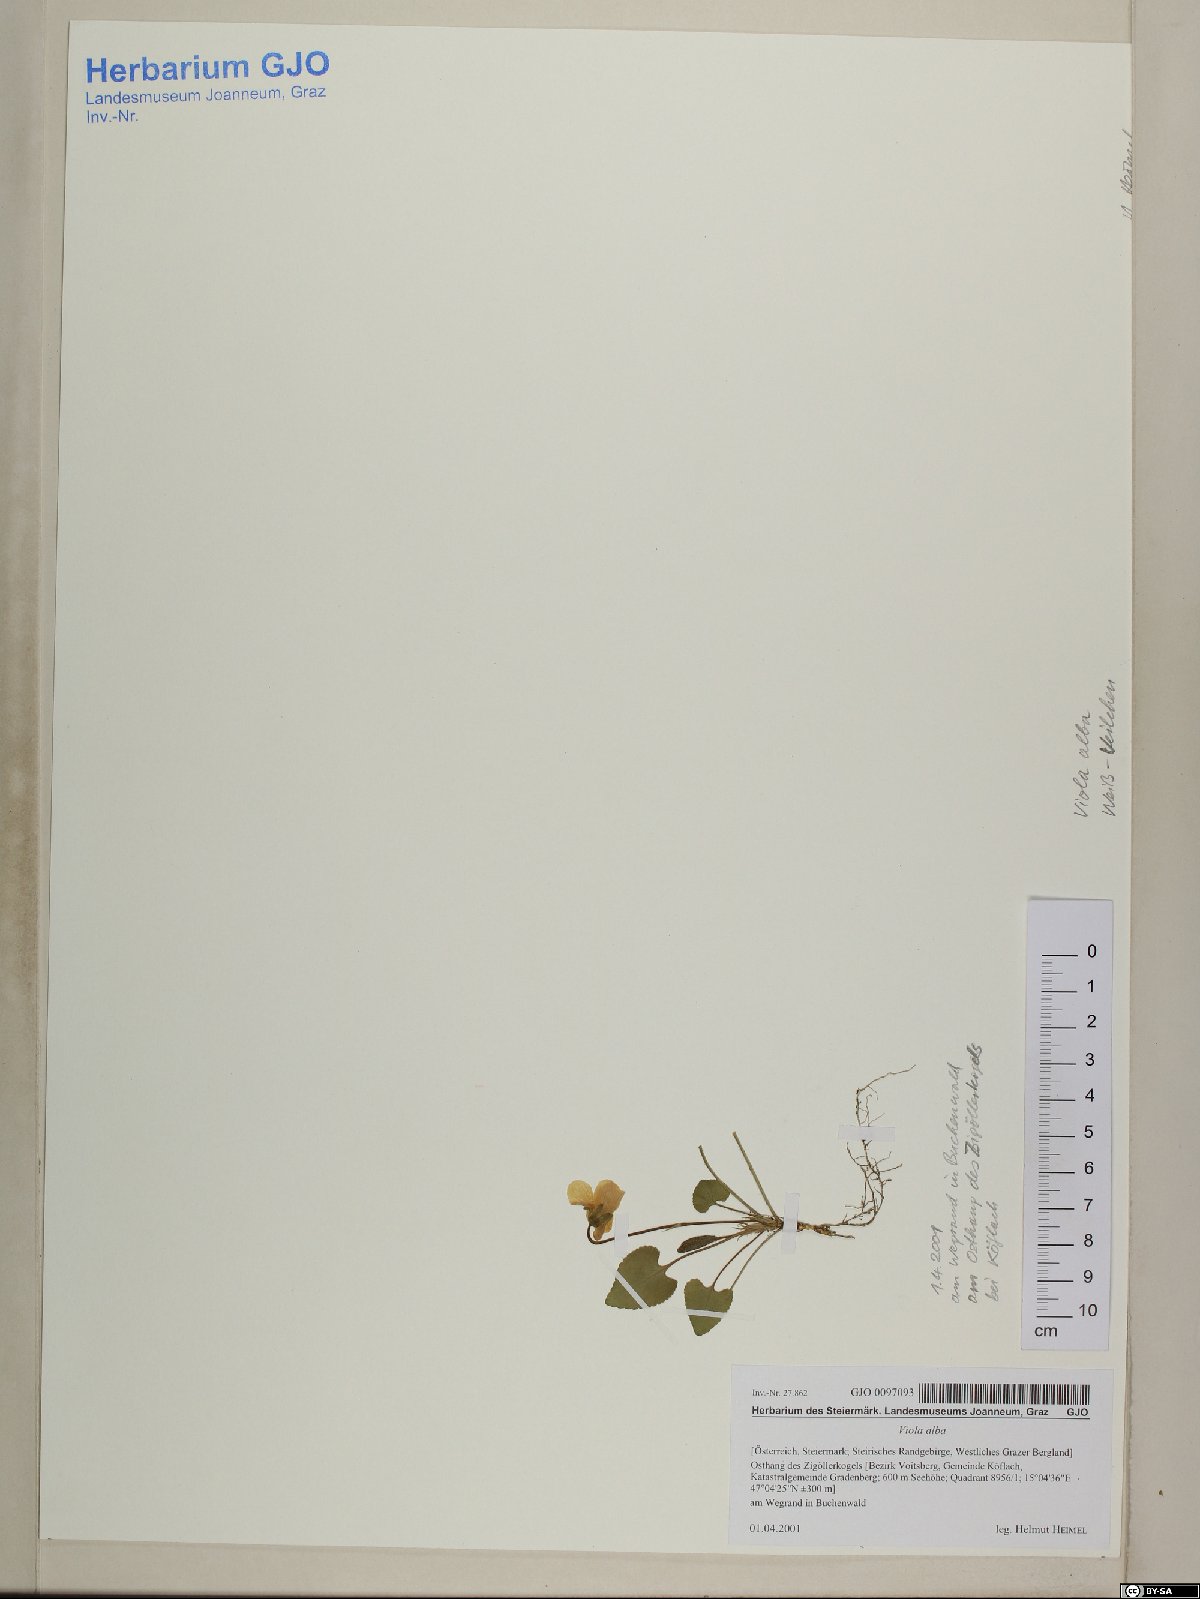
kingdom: Plantae
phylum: Tracheophyta
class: Magnoliopsida
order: Malpighiales
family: Violaceae
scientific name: Violaceae
